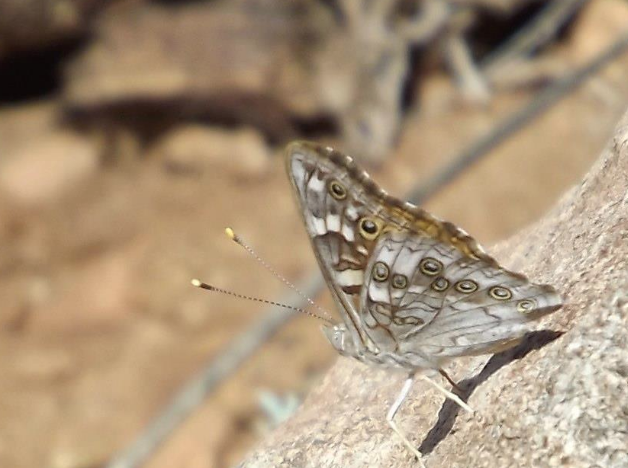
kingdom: Animalia
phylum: Arthropoda
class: Insecta
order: Lepidoptera
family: Nymphalidae
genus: Asterocampa
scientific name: Asterocampa leilia
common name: Empress Leilia
